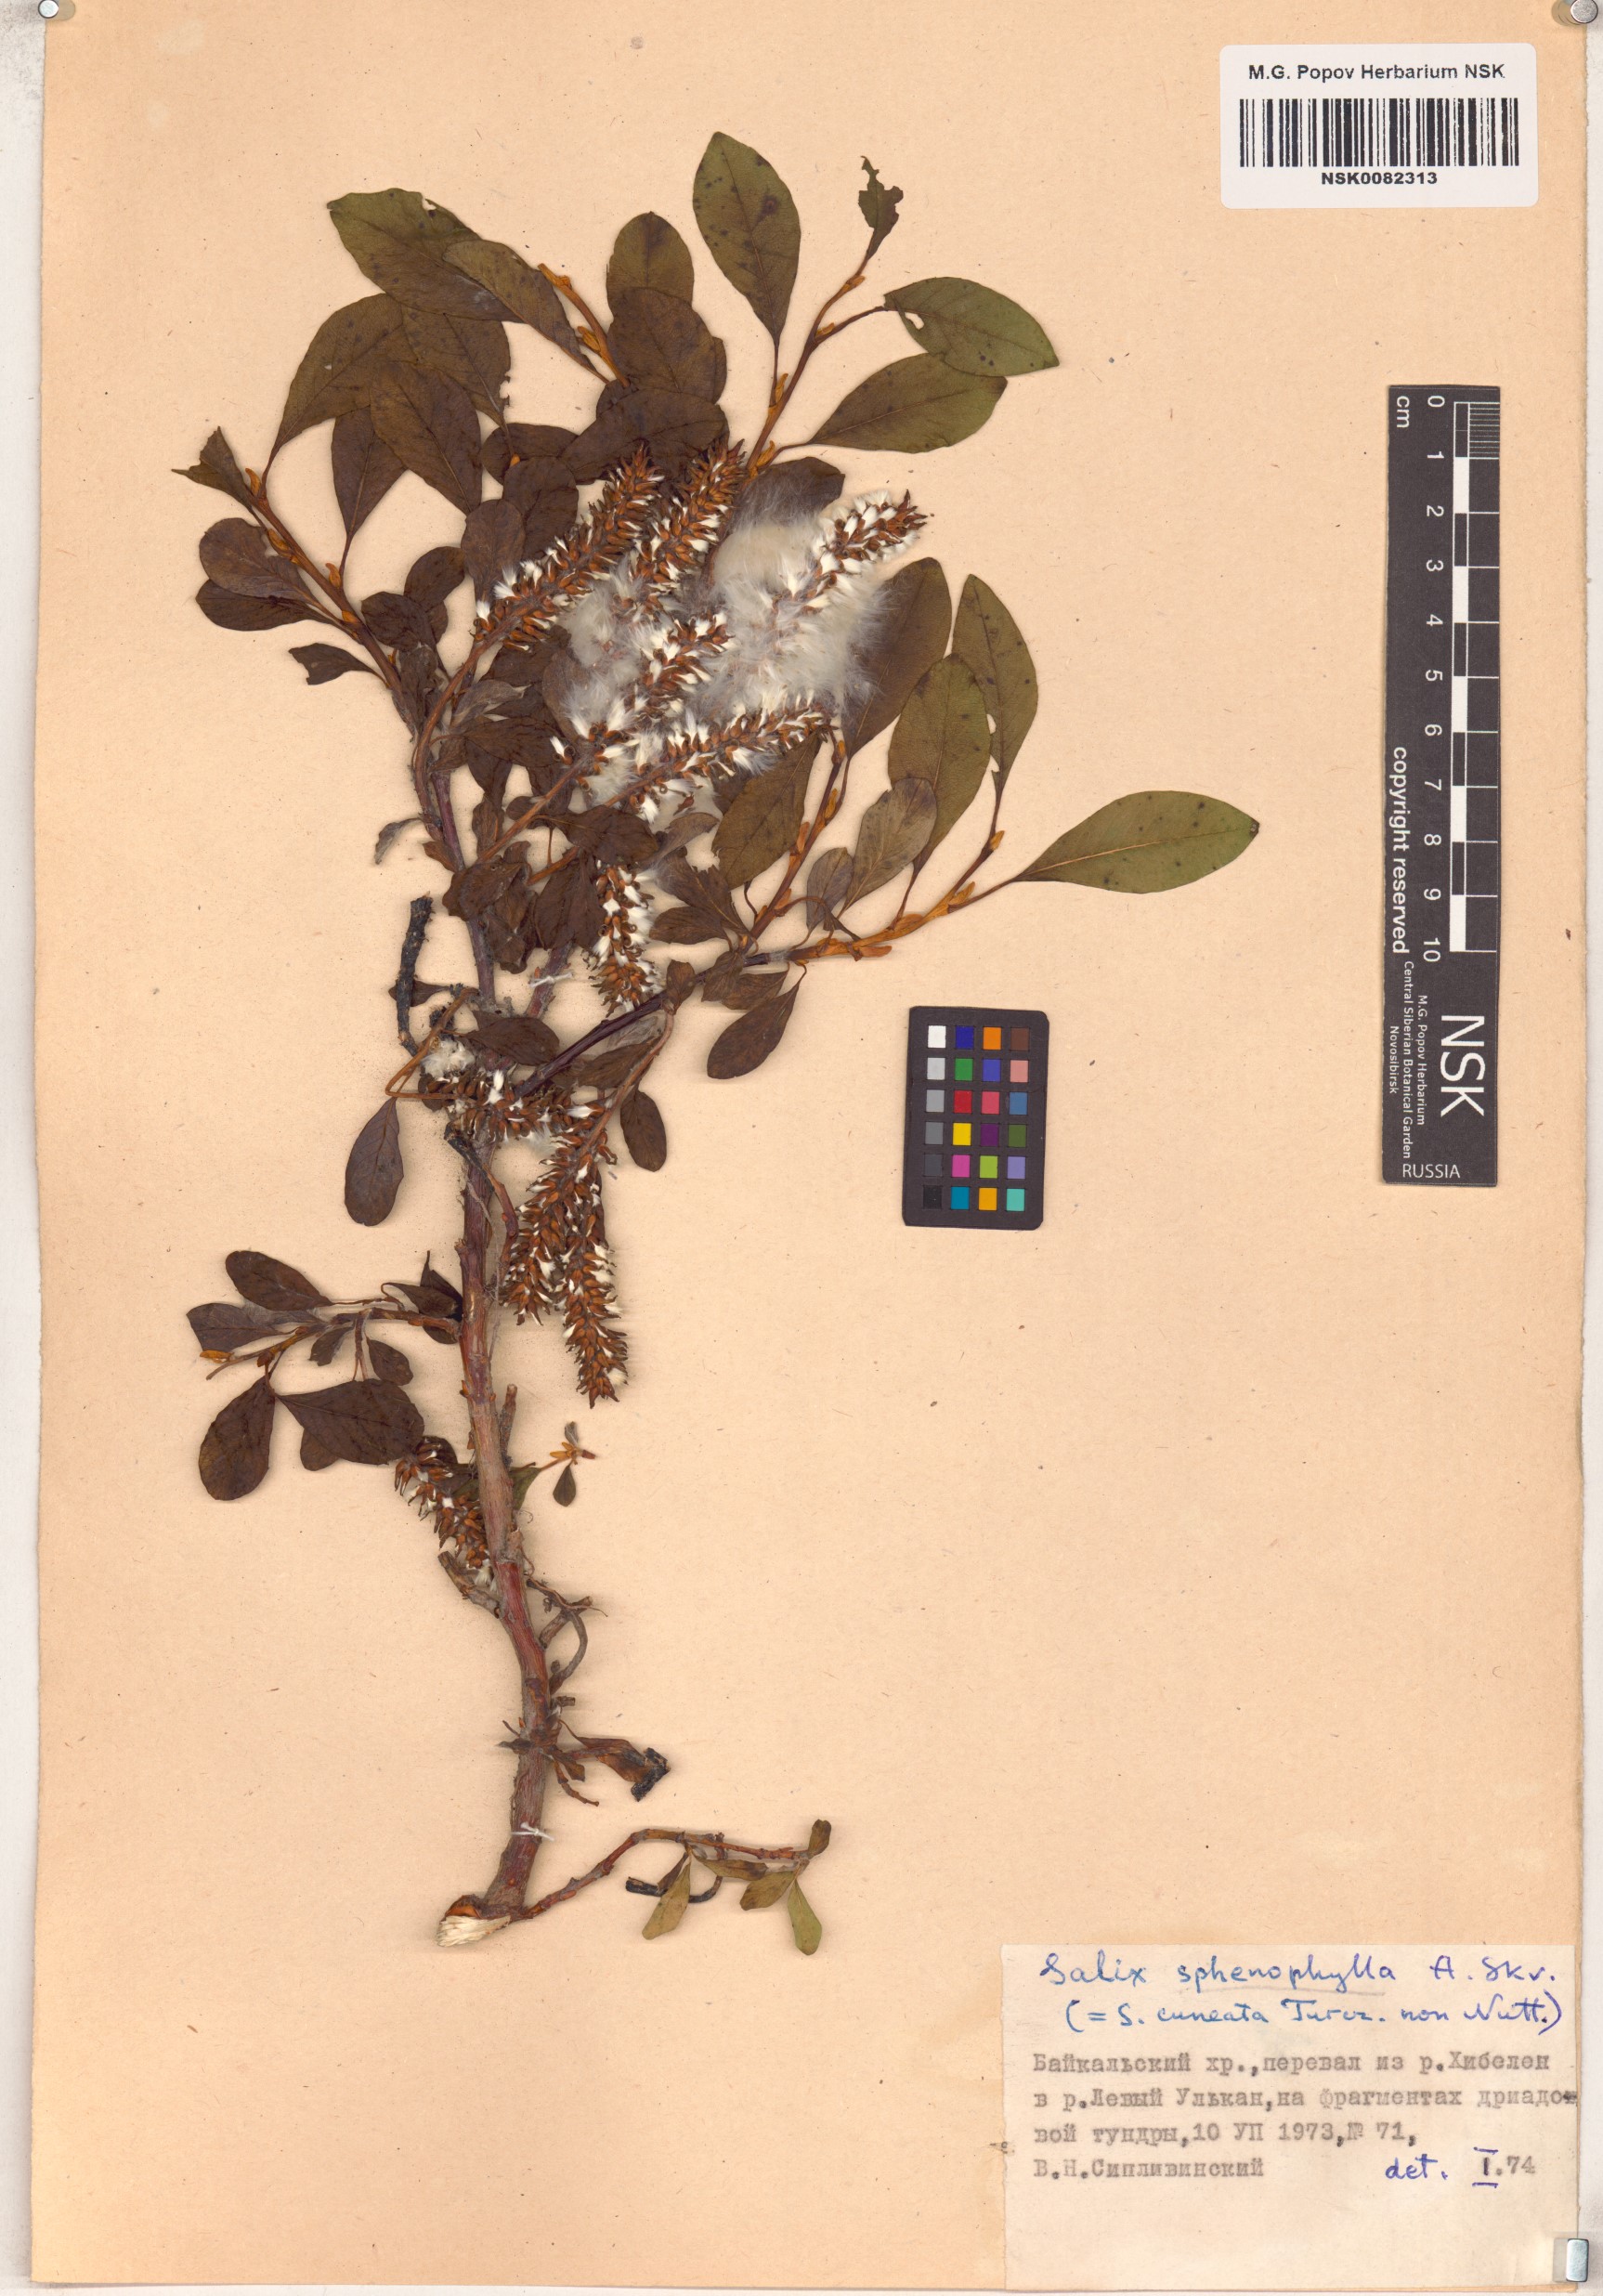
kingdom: Plantae
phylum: Tracheophyta
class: Magnoliopsida
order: Malpighiales
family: Salicaceae
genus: Salix
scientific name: Salix sphenophylla
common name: Wedge-leaved willow
